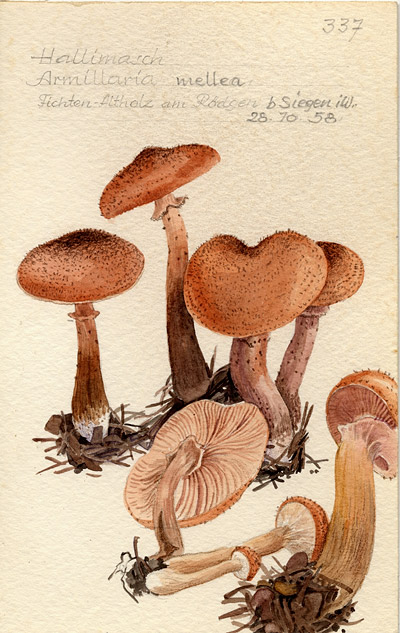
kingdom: Fungi
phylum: Basidiomycota
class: Agaricomycetes
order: Agaricales
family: Physalacriaceae
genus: Armillaria
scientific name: Armillaria mellea
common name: Honey fungus
